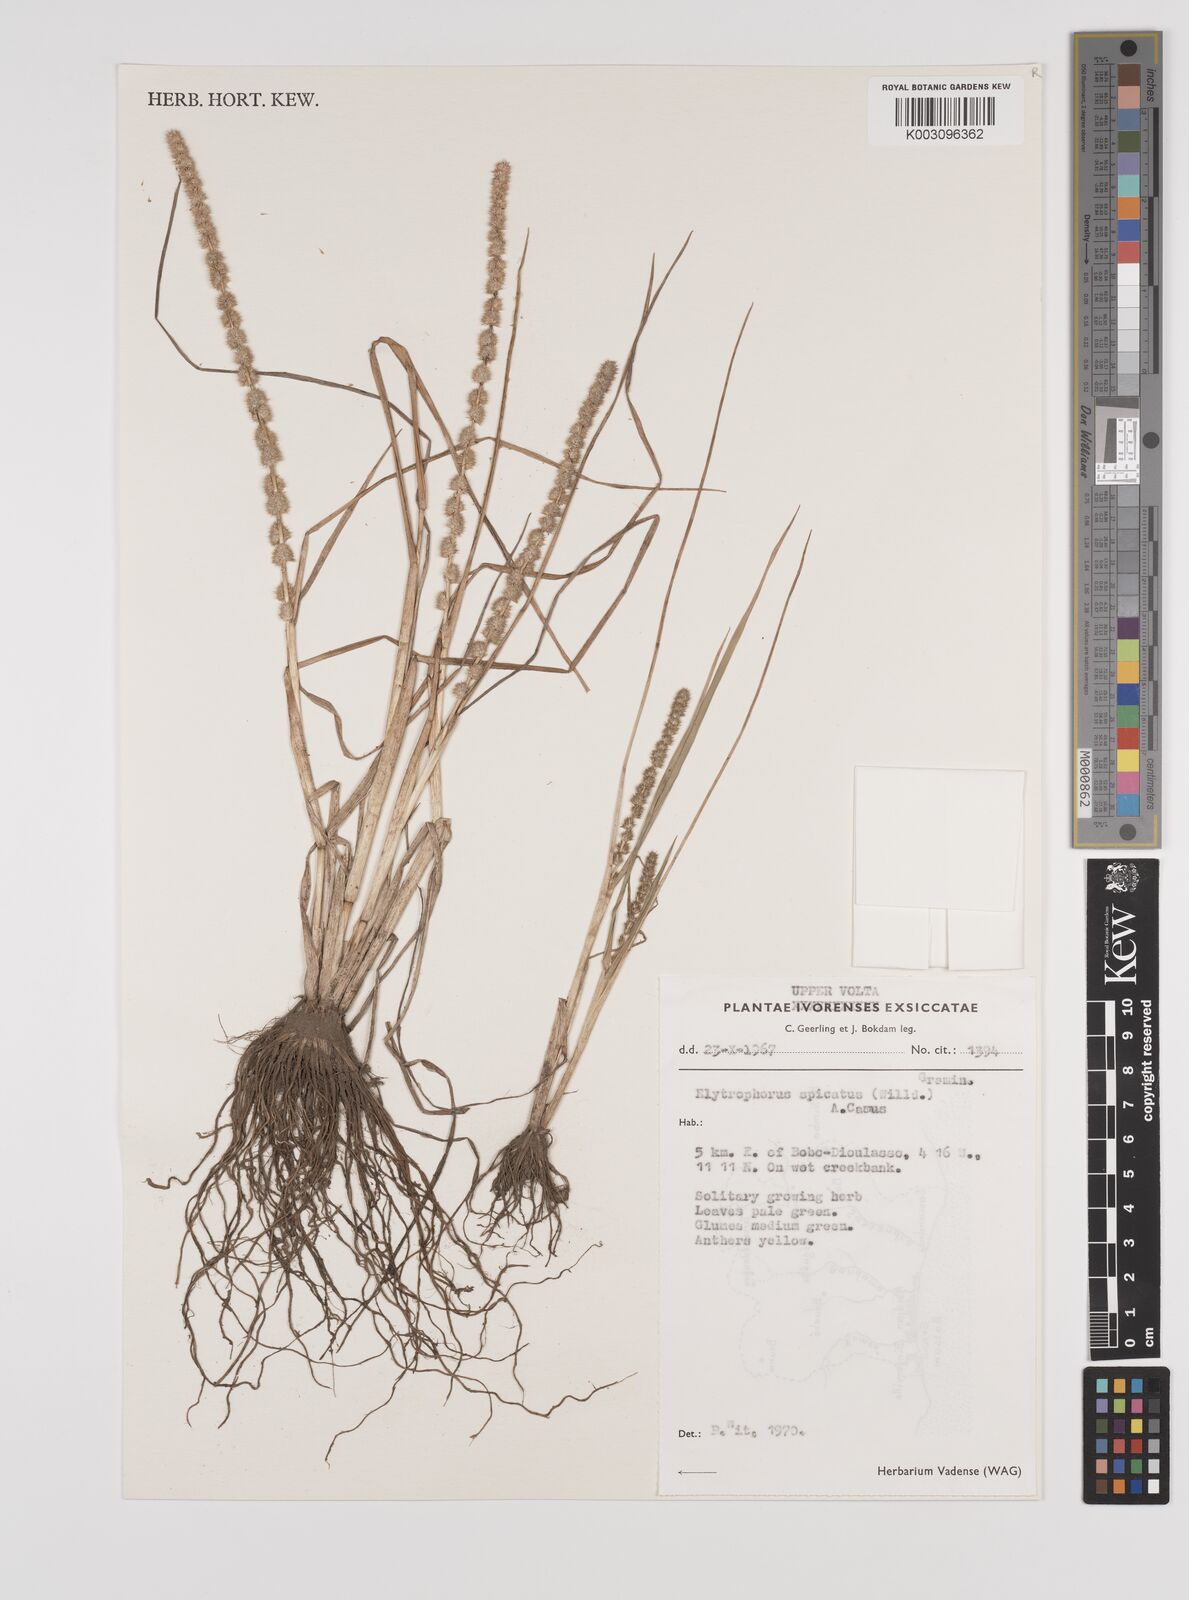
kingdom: Plantae
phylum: Tracheophyta
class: Liliopsida
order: Poales
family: Poaceae
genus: Elytrophorus
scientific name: Elytrophorus spicatus
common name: Spike grass
